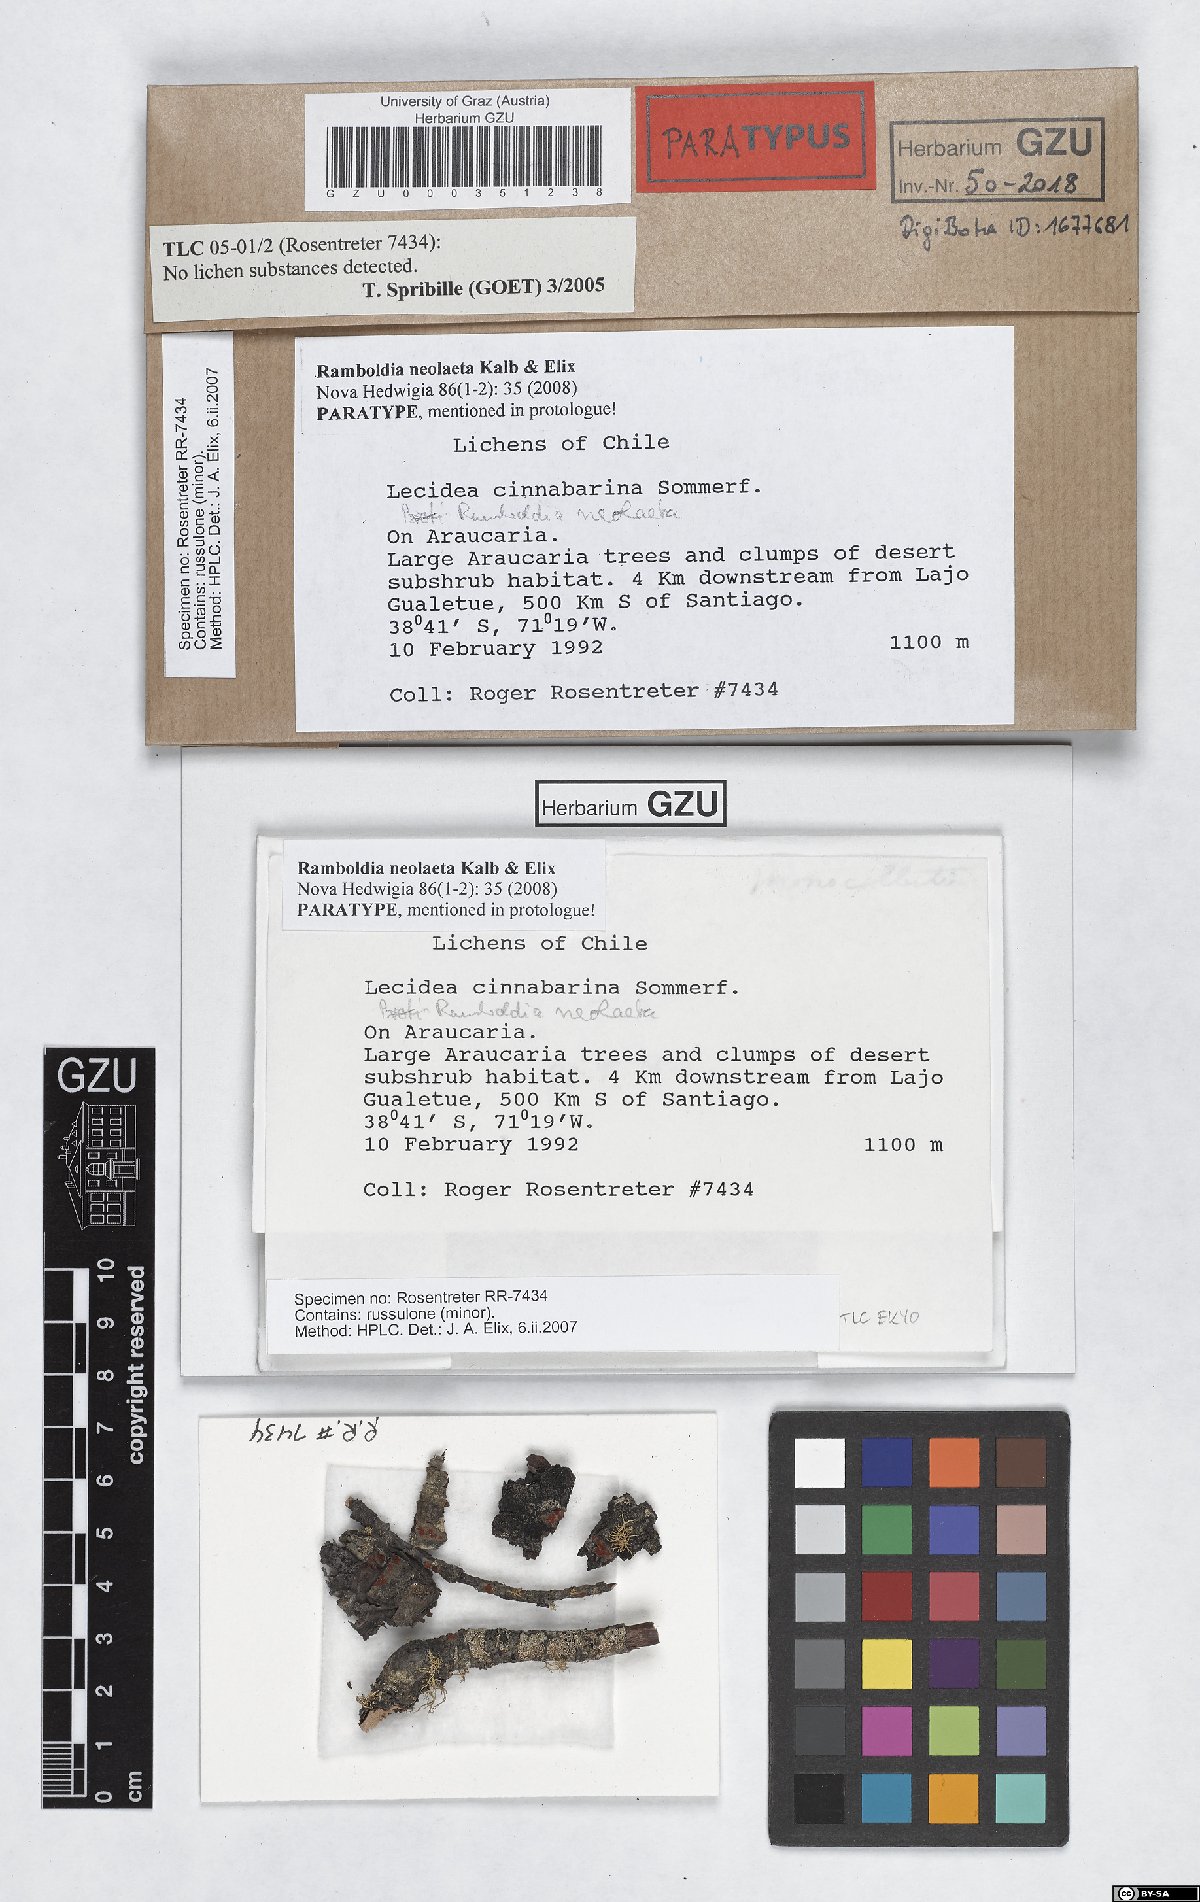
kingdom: Fungi
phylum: Ascomycota
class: Lecanoromycetes
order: Lecanorales
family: Ramboldiaceae
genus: Ramboldia
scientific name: Ramboldia neolata
